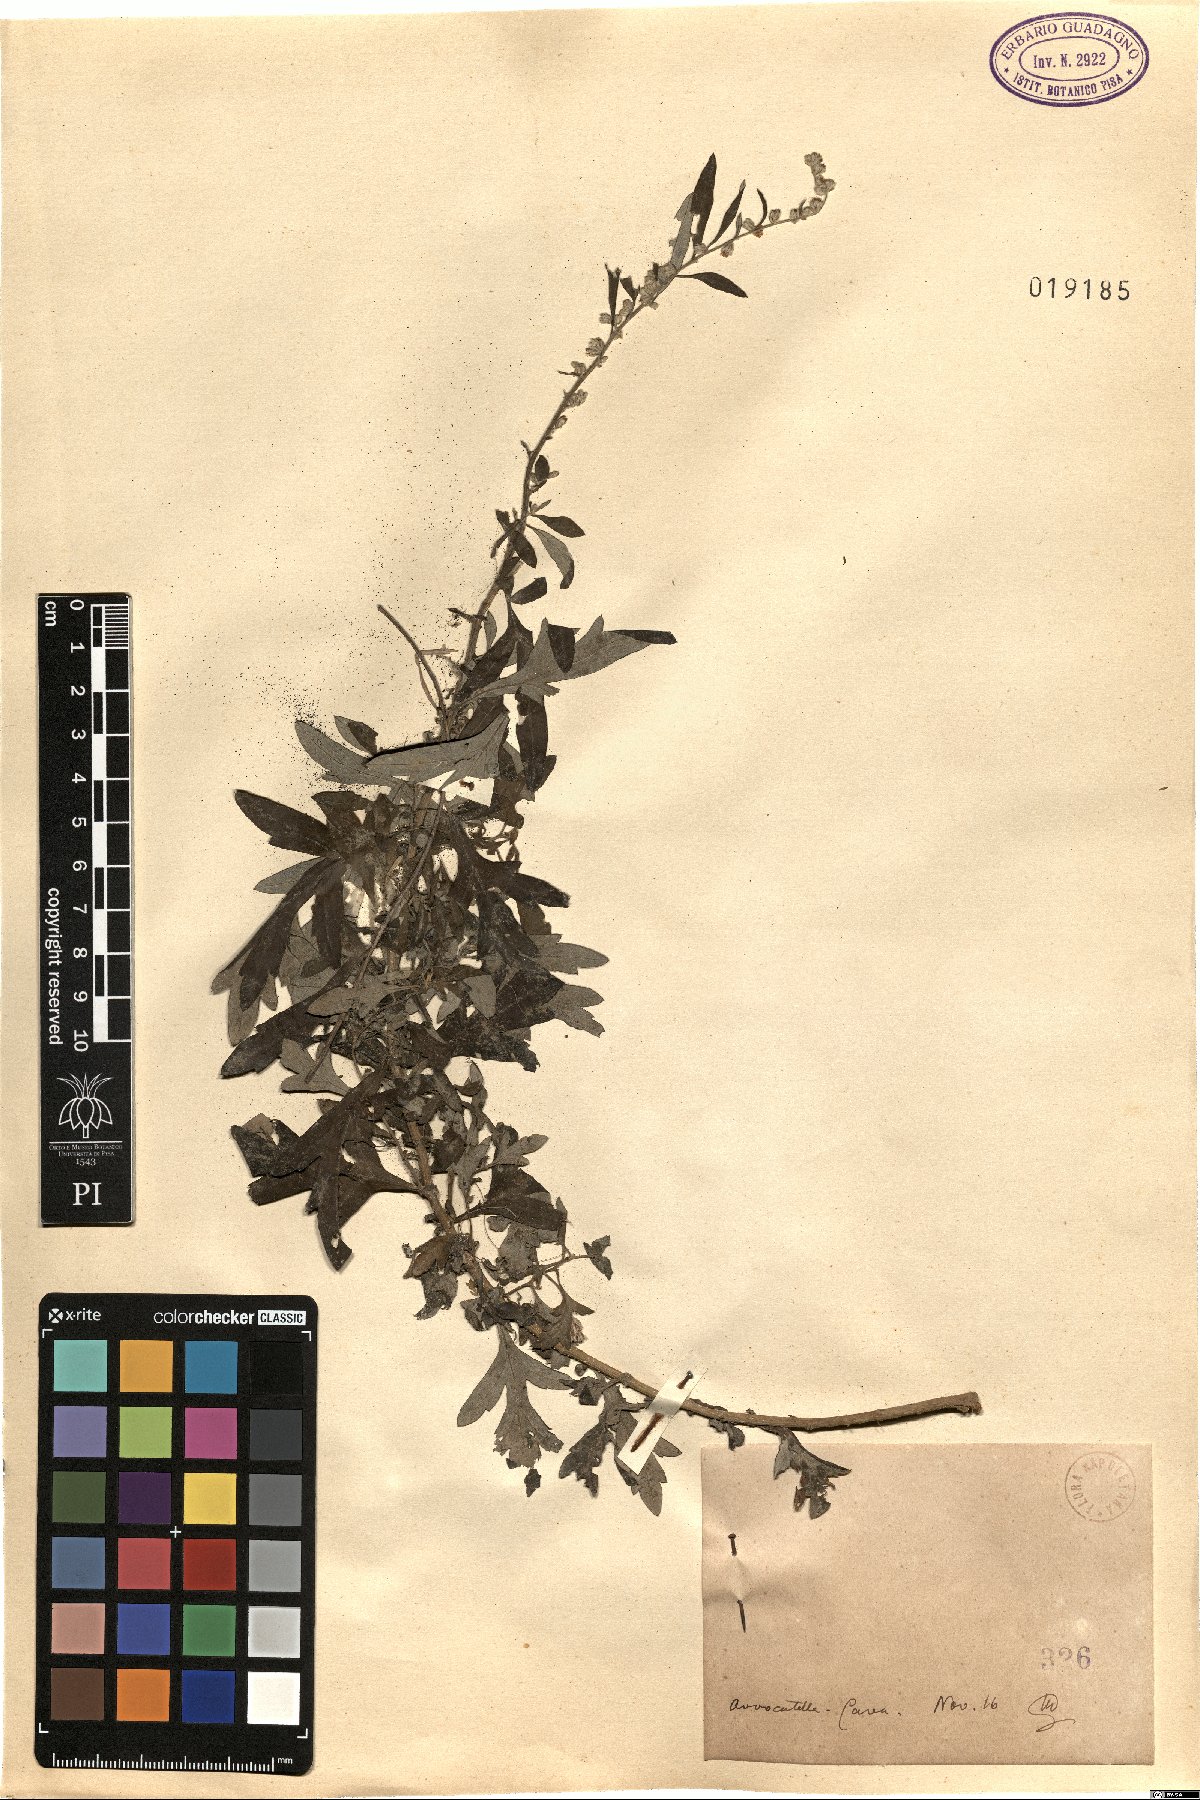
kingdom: Plantae
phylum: Tracheophyta
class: Magnoliopsida
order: Asterales
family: Asteraceae
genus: Artemisia
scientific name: Artemisia
